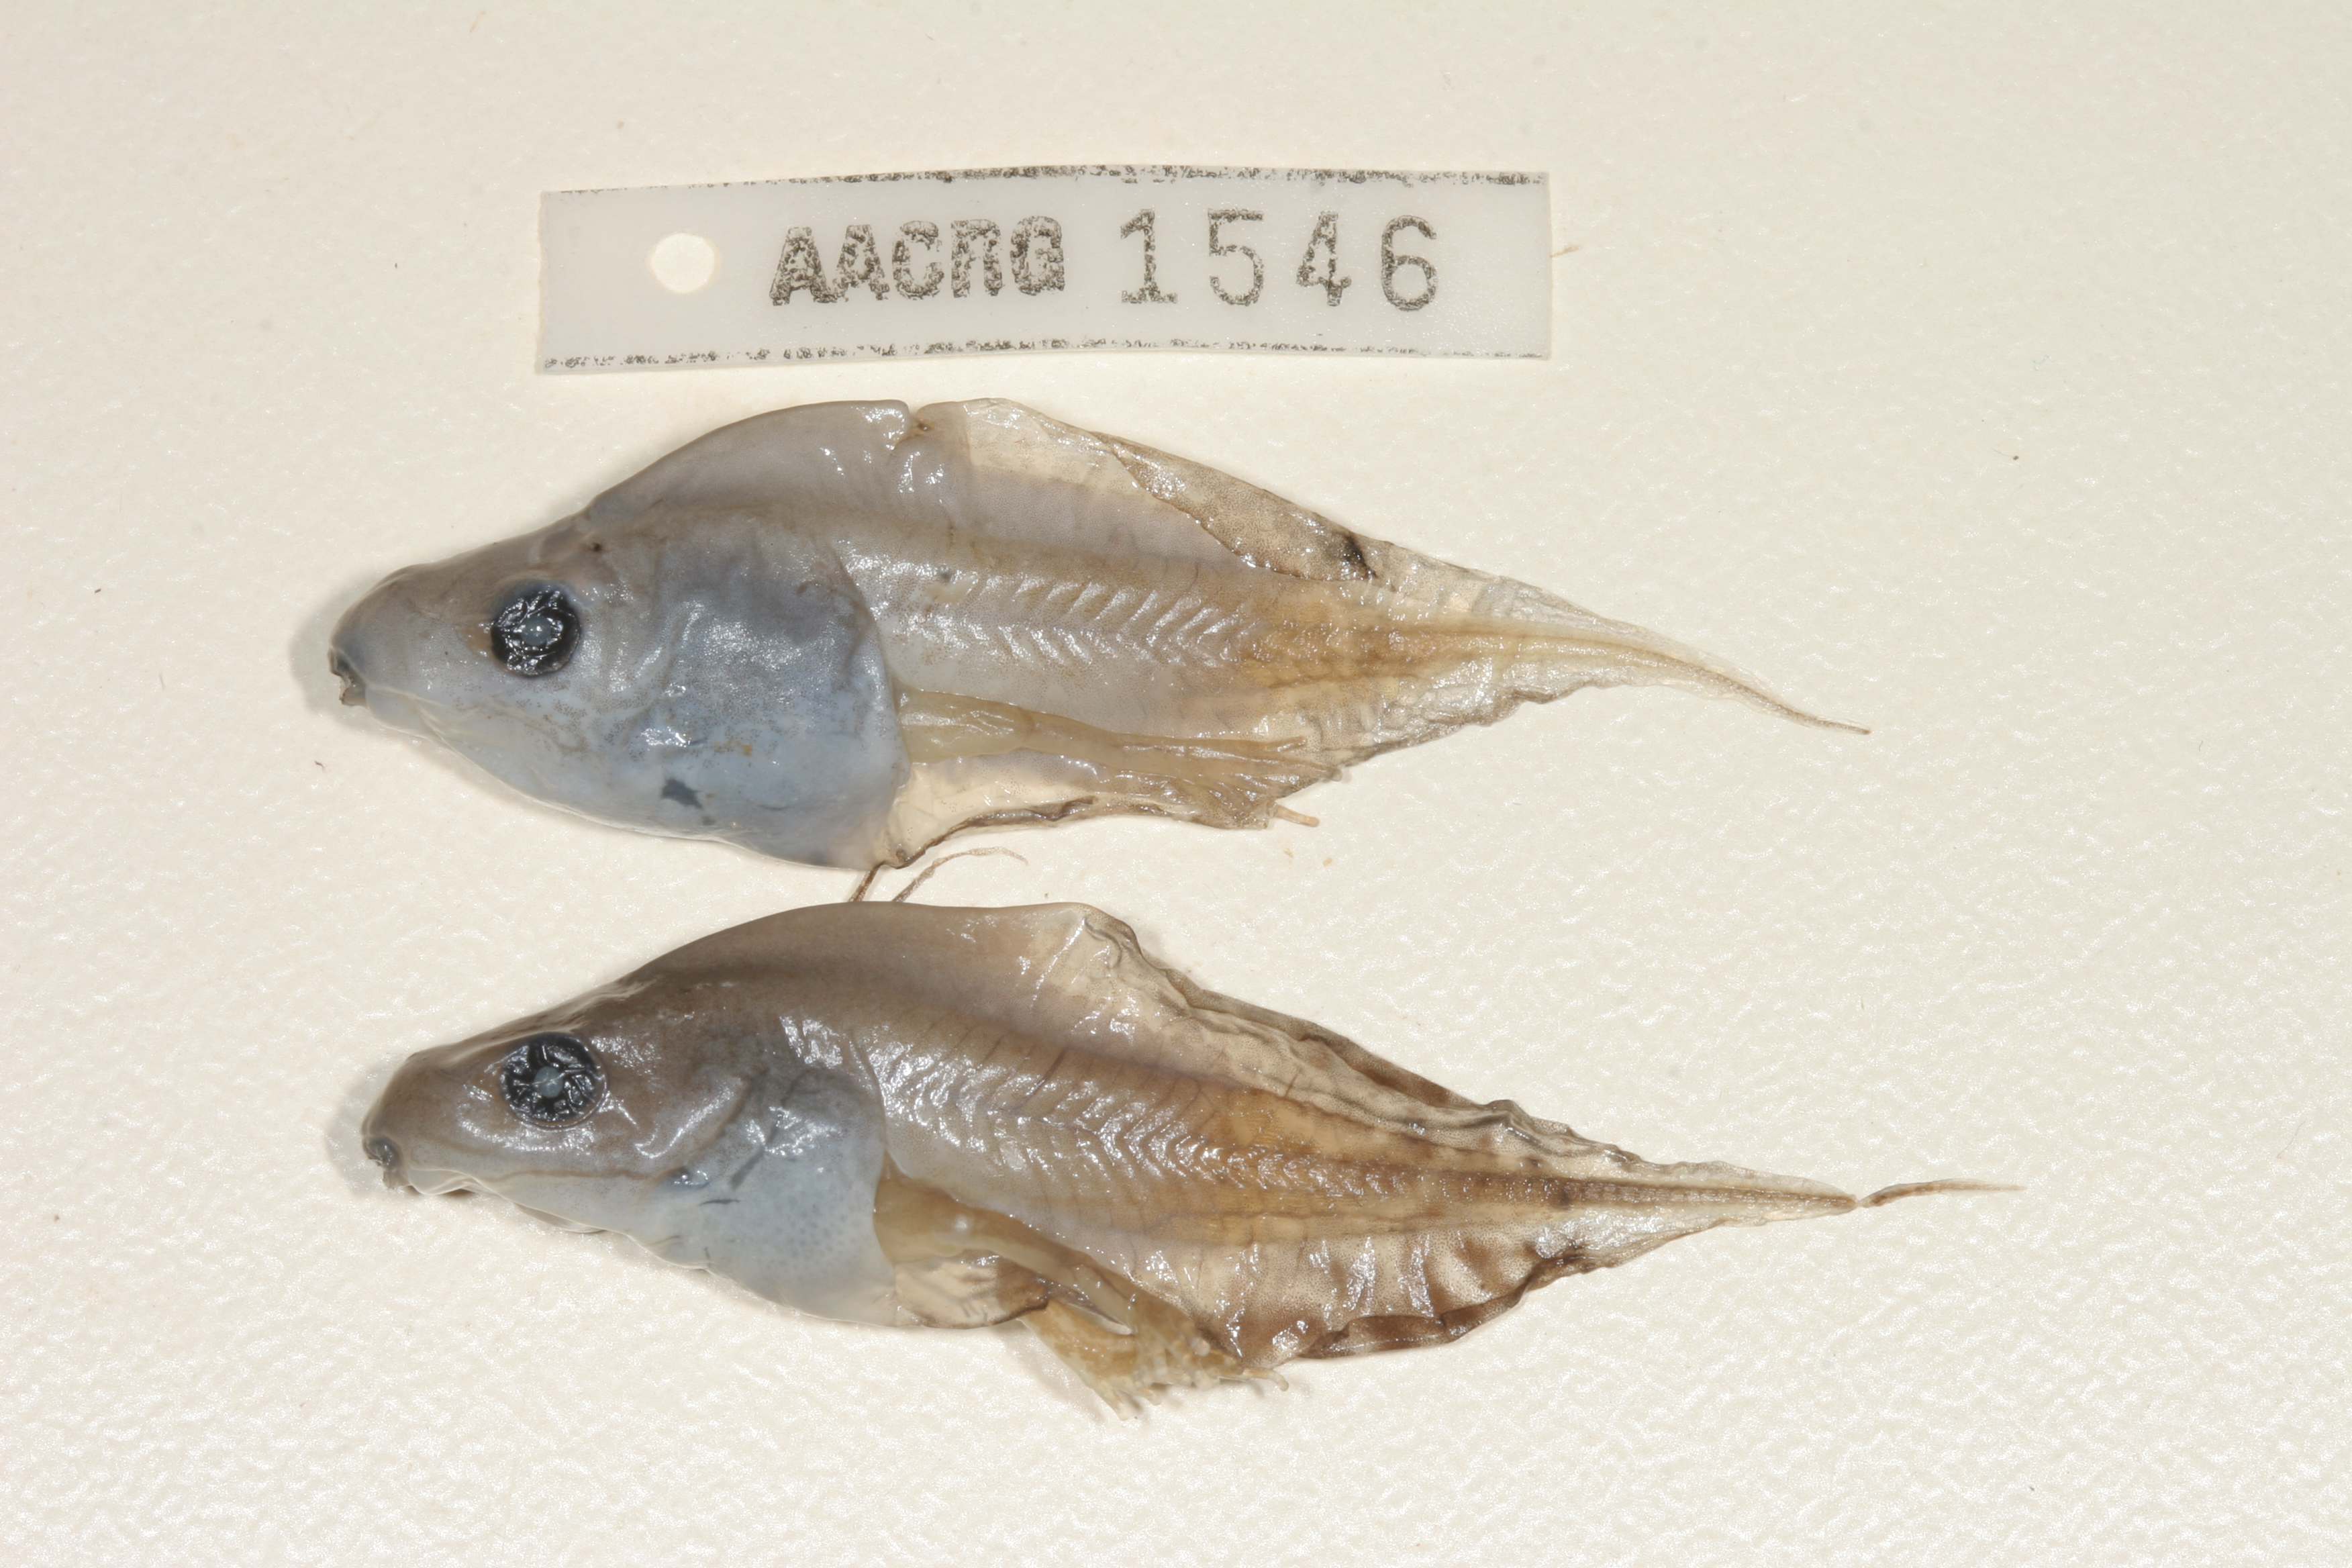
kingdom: Animalia
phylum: Chordata
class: Amphibia
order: Anura
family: Hyperoliidae
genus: Kassina
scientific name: Kassina senegalensis
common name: Senegal land frog
